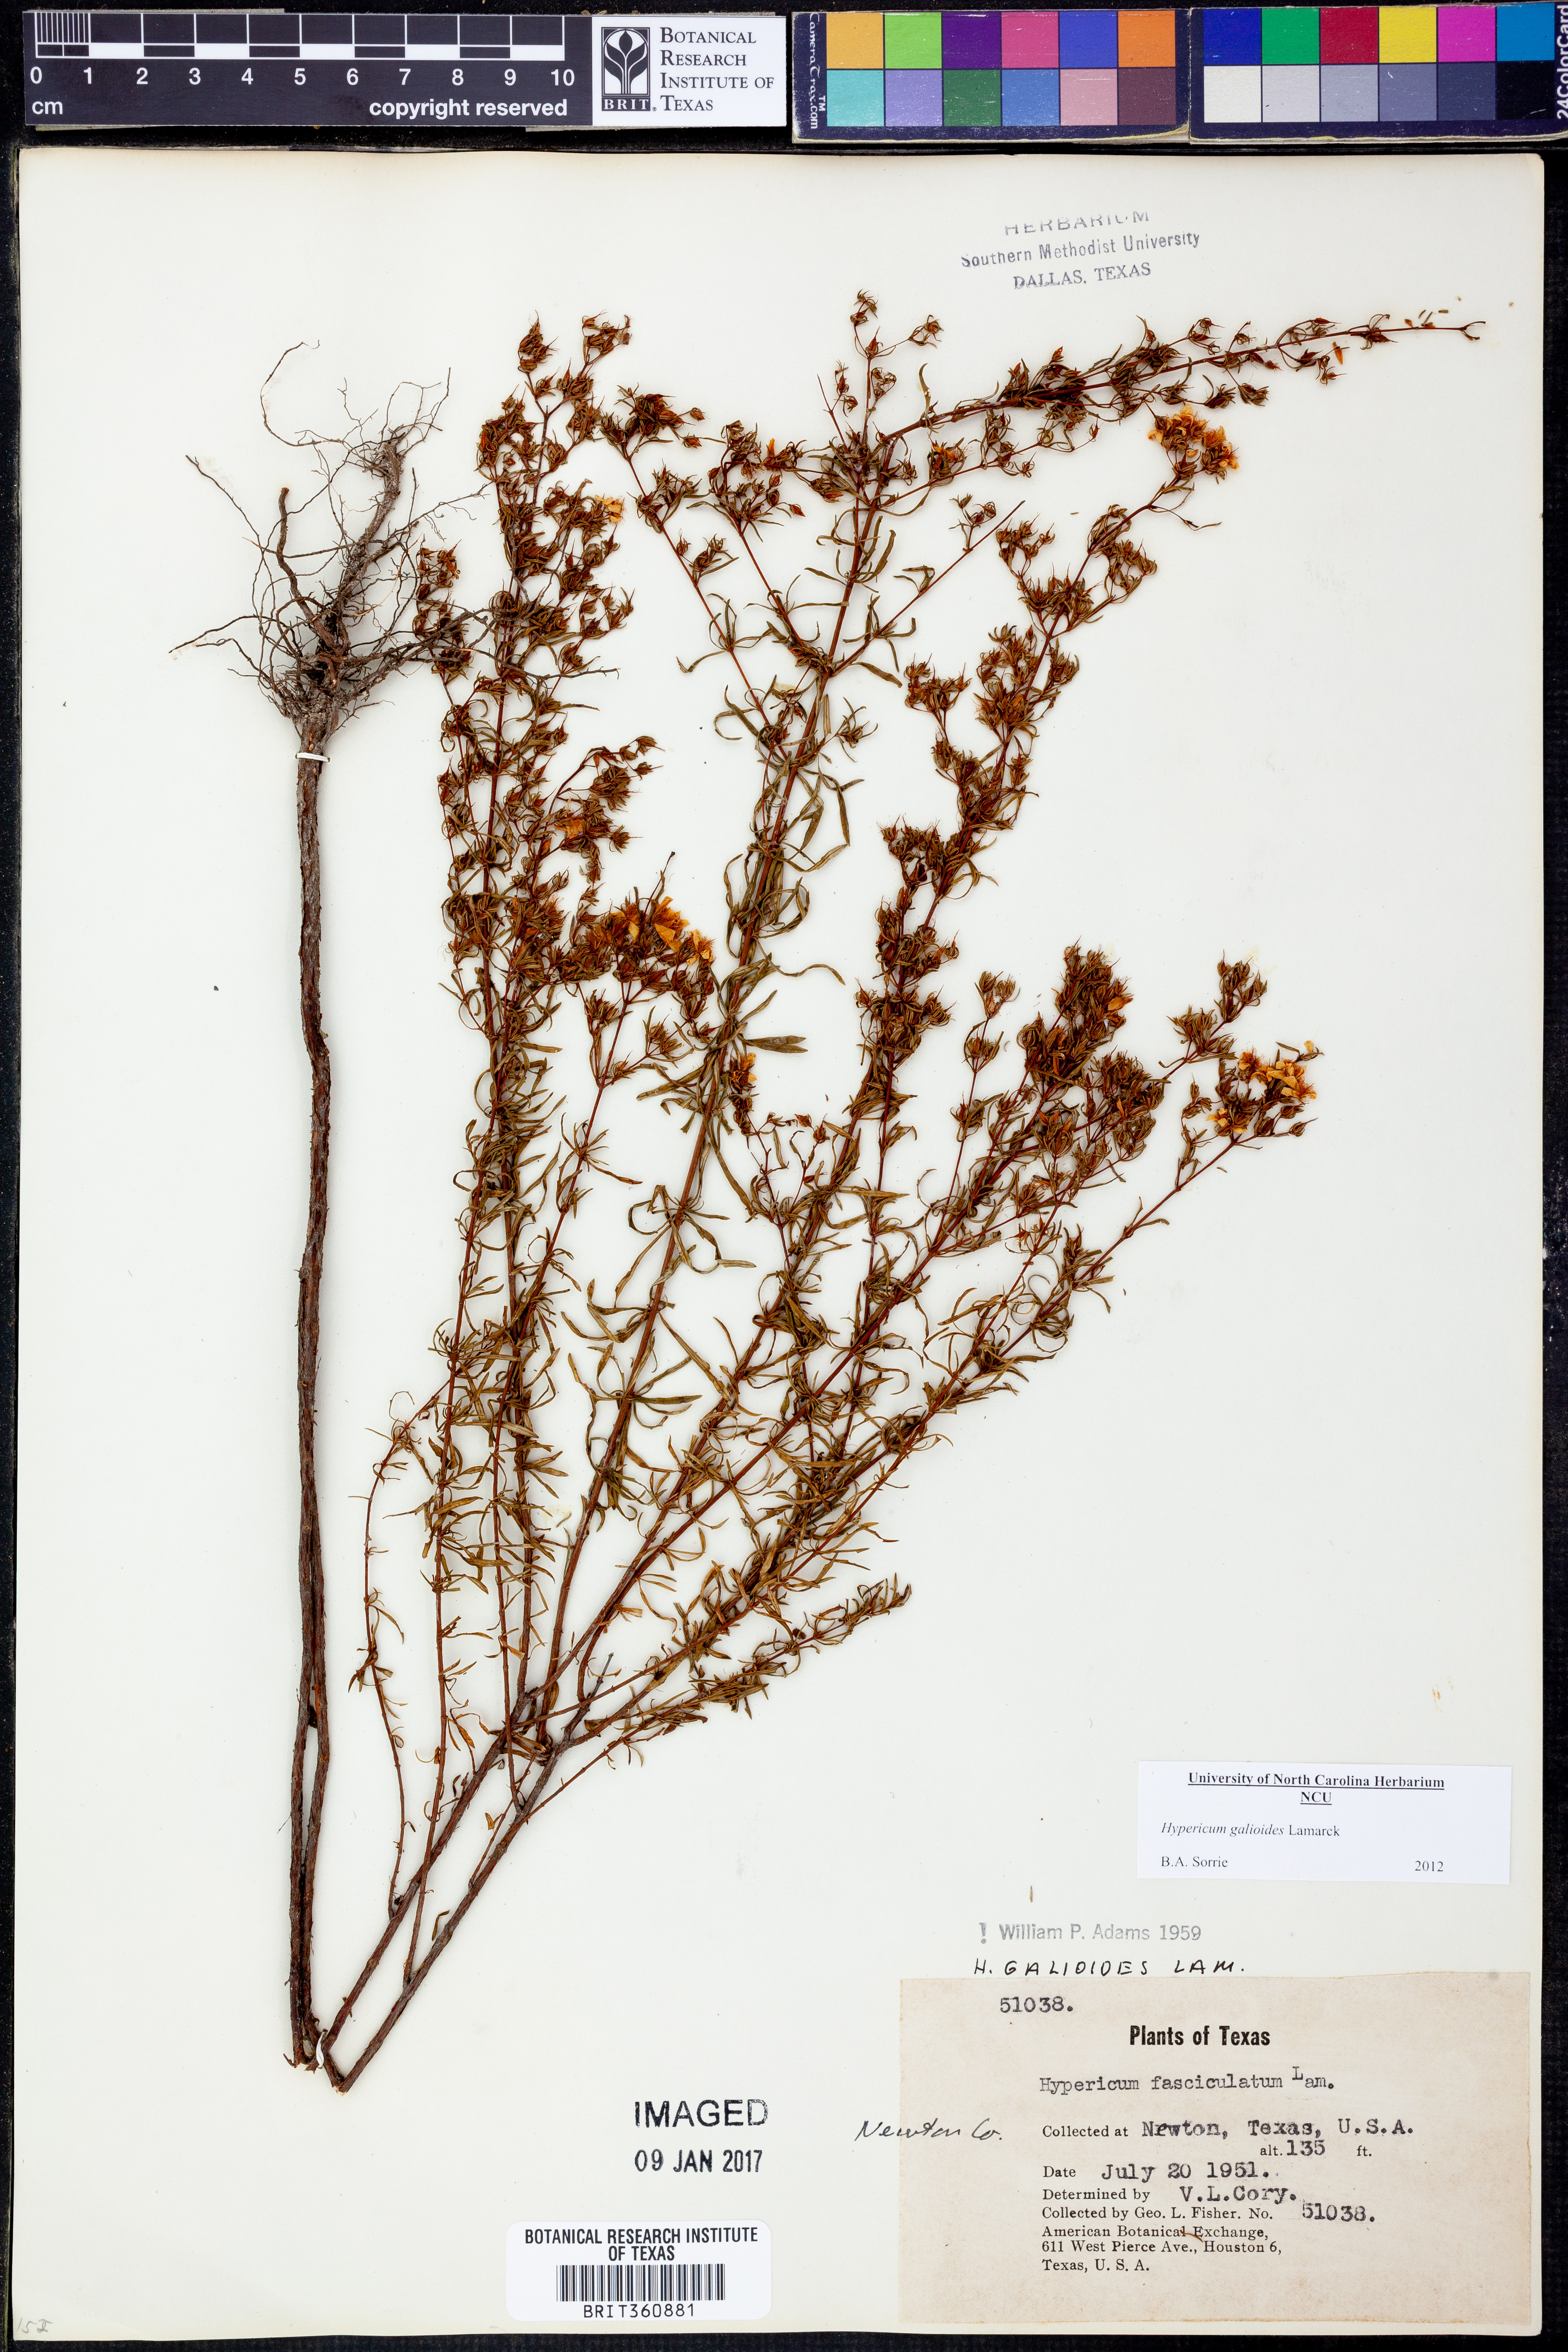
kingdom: Plantae
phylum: Tracheophyta
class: Magnoliopsida
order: Malpighiales
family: Hypericaceae
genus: Hypericum
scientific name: Hypericum galioides
